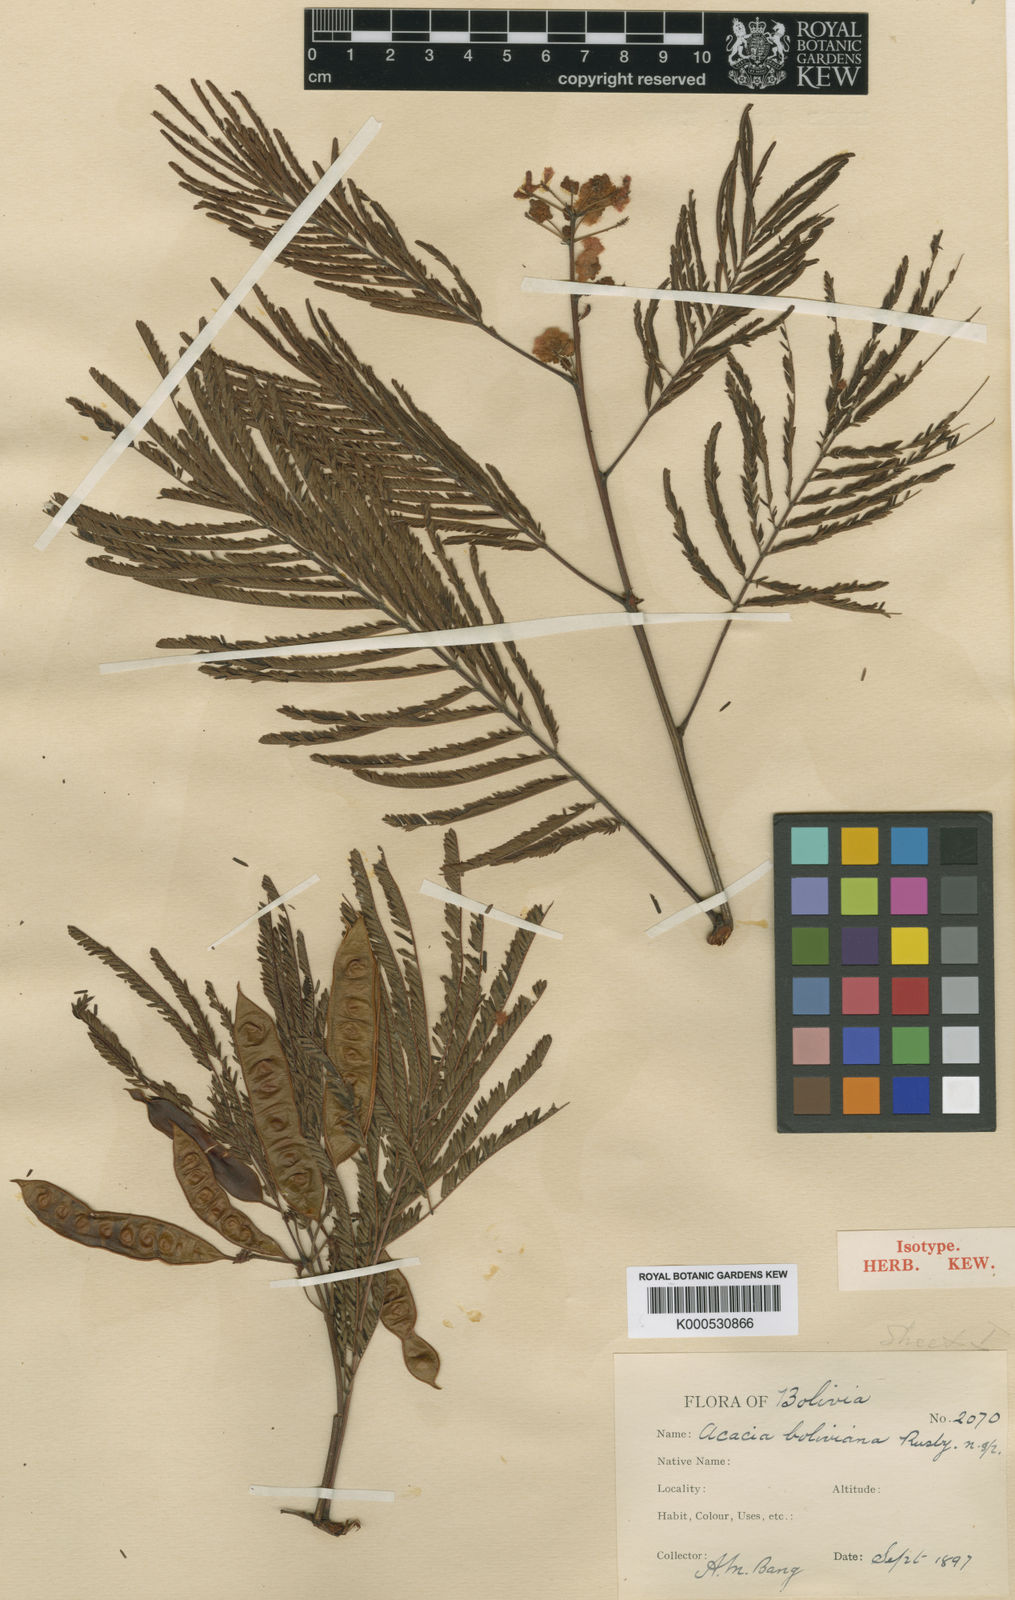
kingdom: Plantae
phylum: Tracheophyta
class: Magnoliopsida
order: Fabales
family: Fabaceae
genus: Acaciella
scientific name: Acaciella angustissima
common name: Prairie acacia
